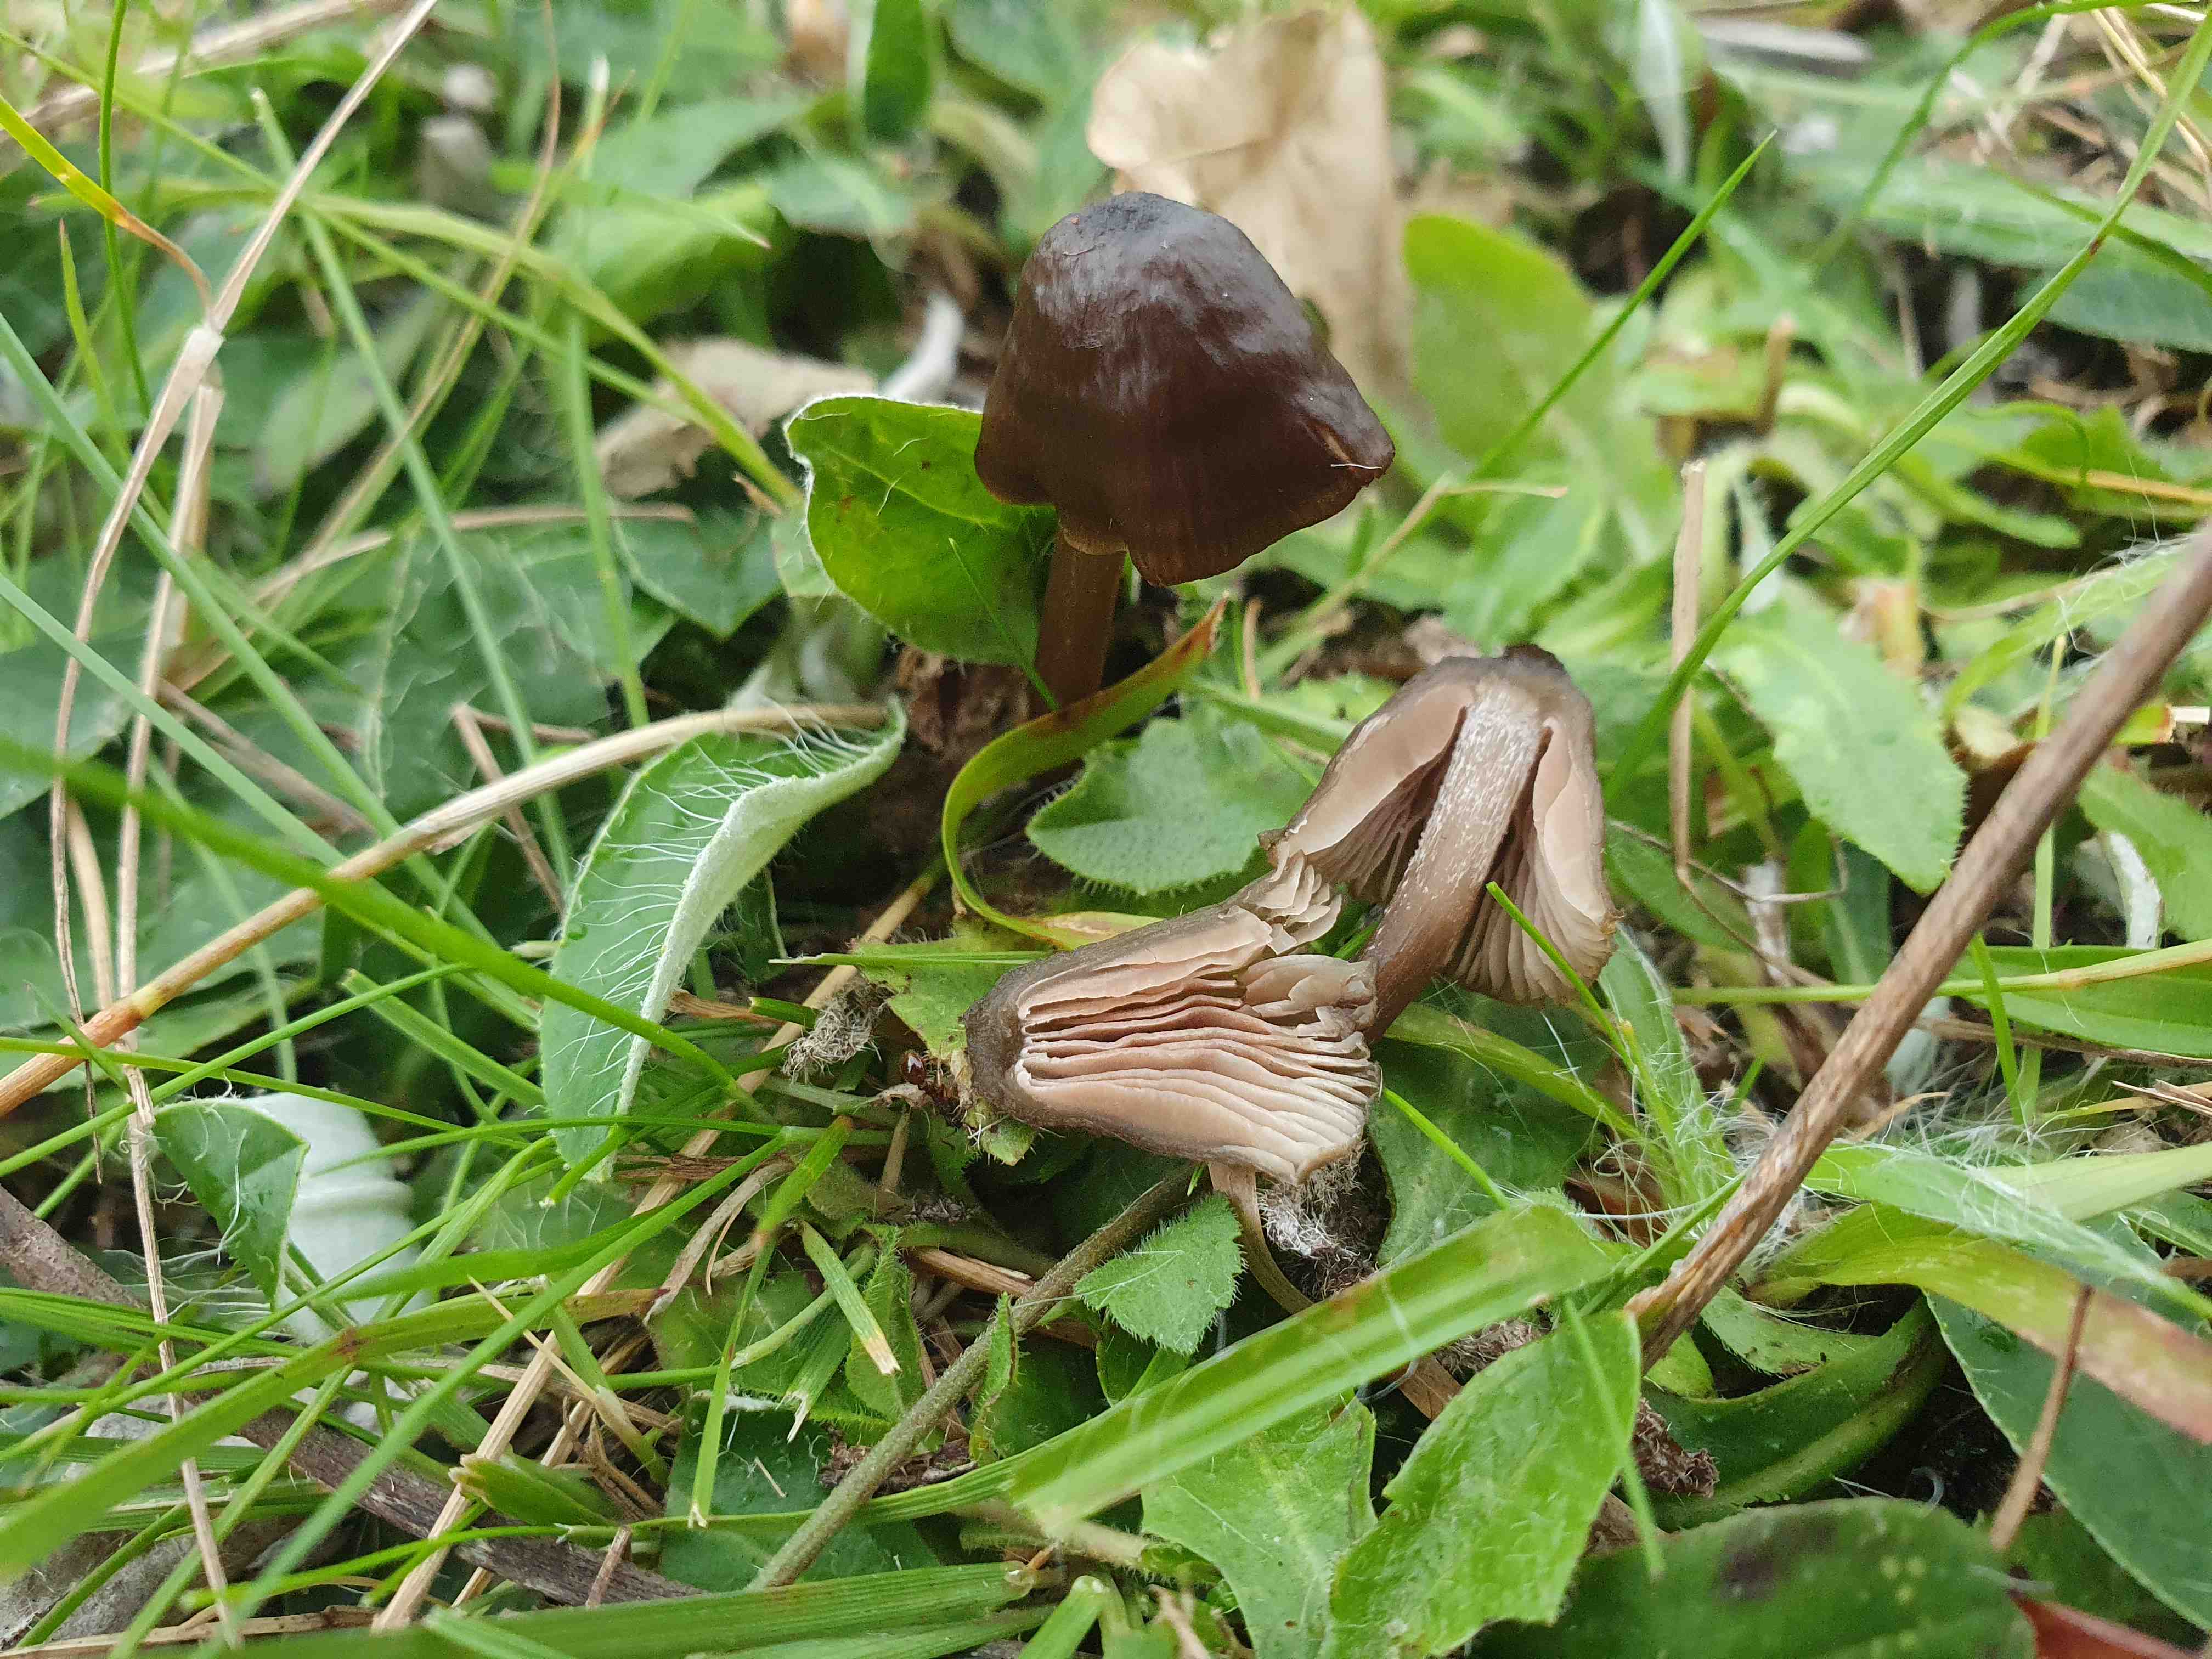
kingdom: Fungi
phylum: Basidiomycota
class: Agaricomycetes
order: Agaricales
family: Entolomataceae
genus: Entoloma
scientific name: Entoloma
